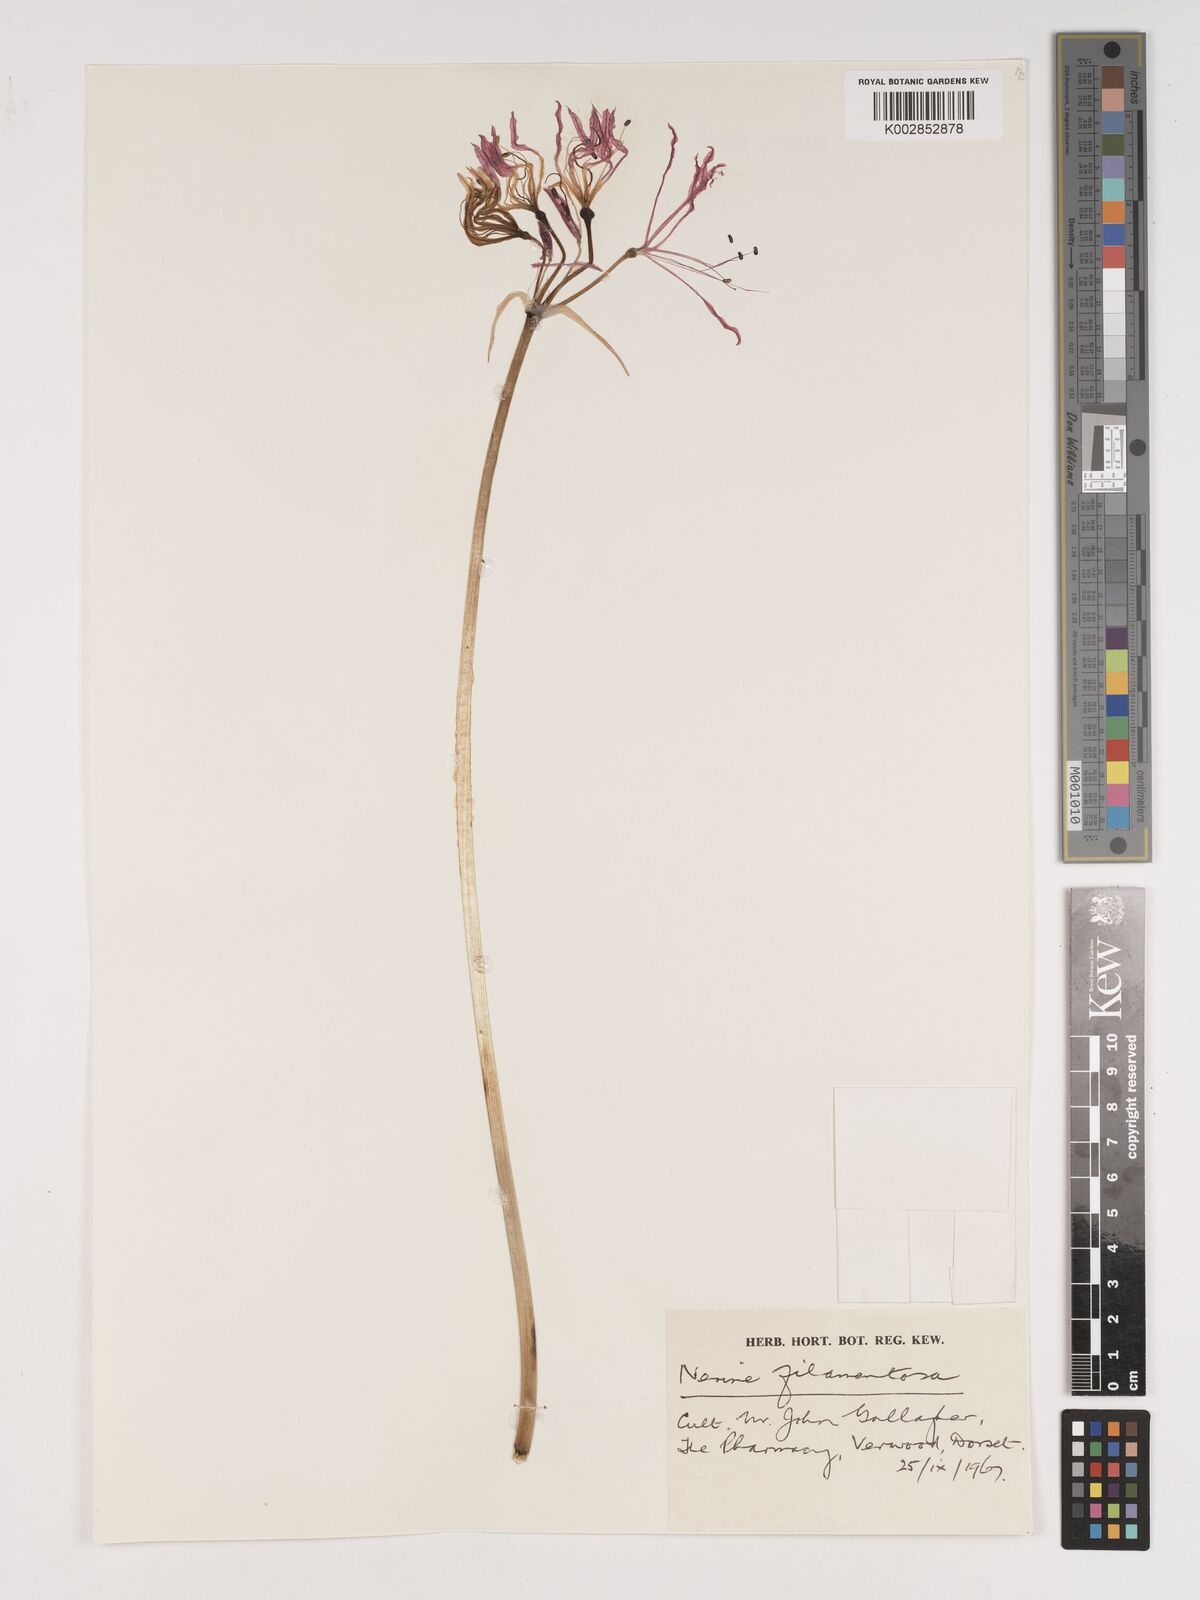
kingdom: Plantae
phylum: Tracheophyta
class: Liliopsida
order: Asparagales
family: Amaryllidaceae
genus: Nerine
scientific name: Nerine filifolia
